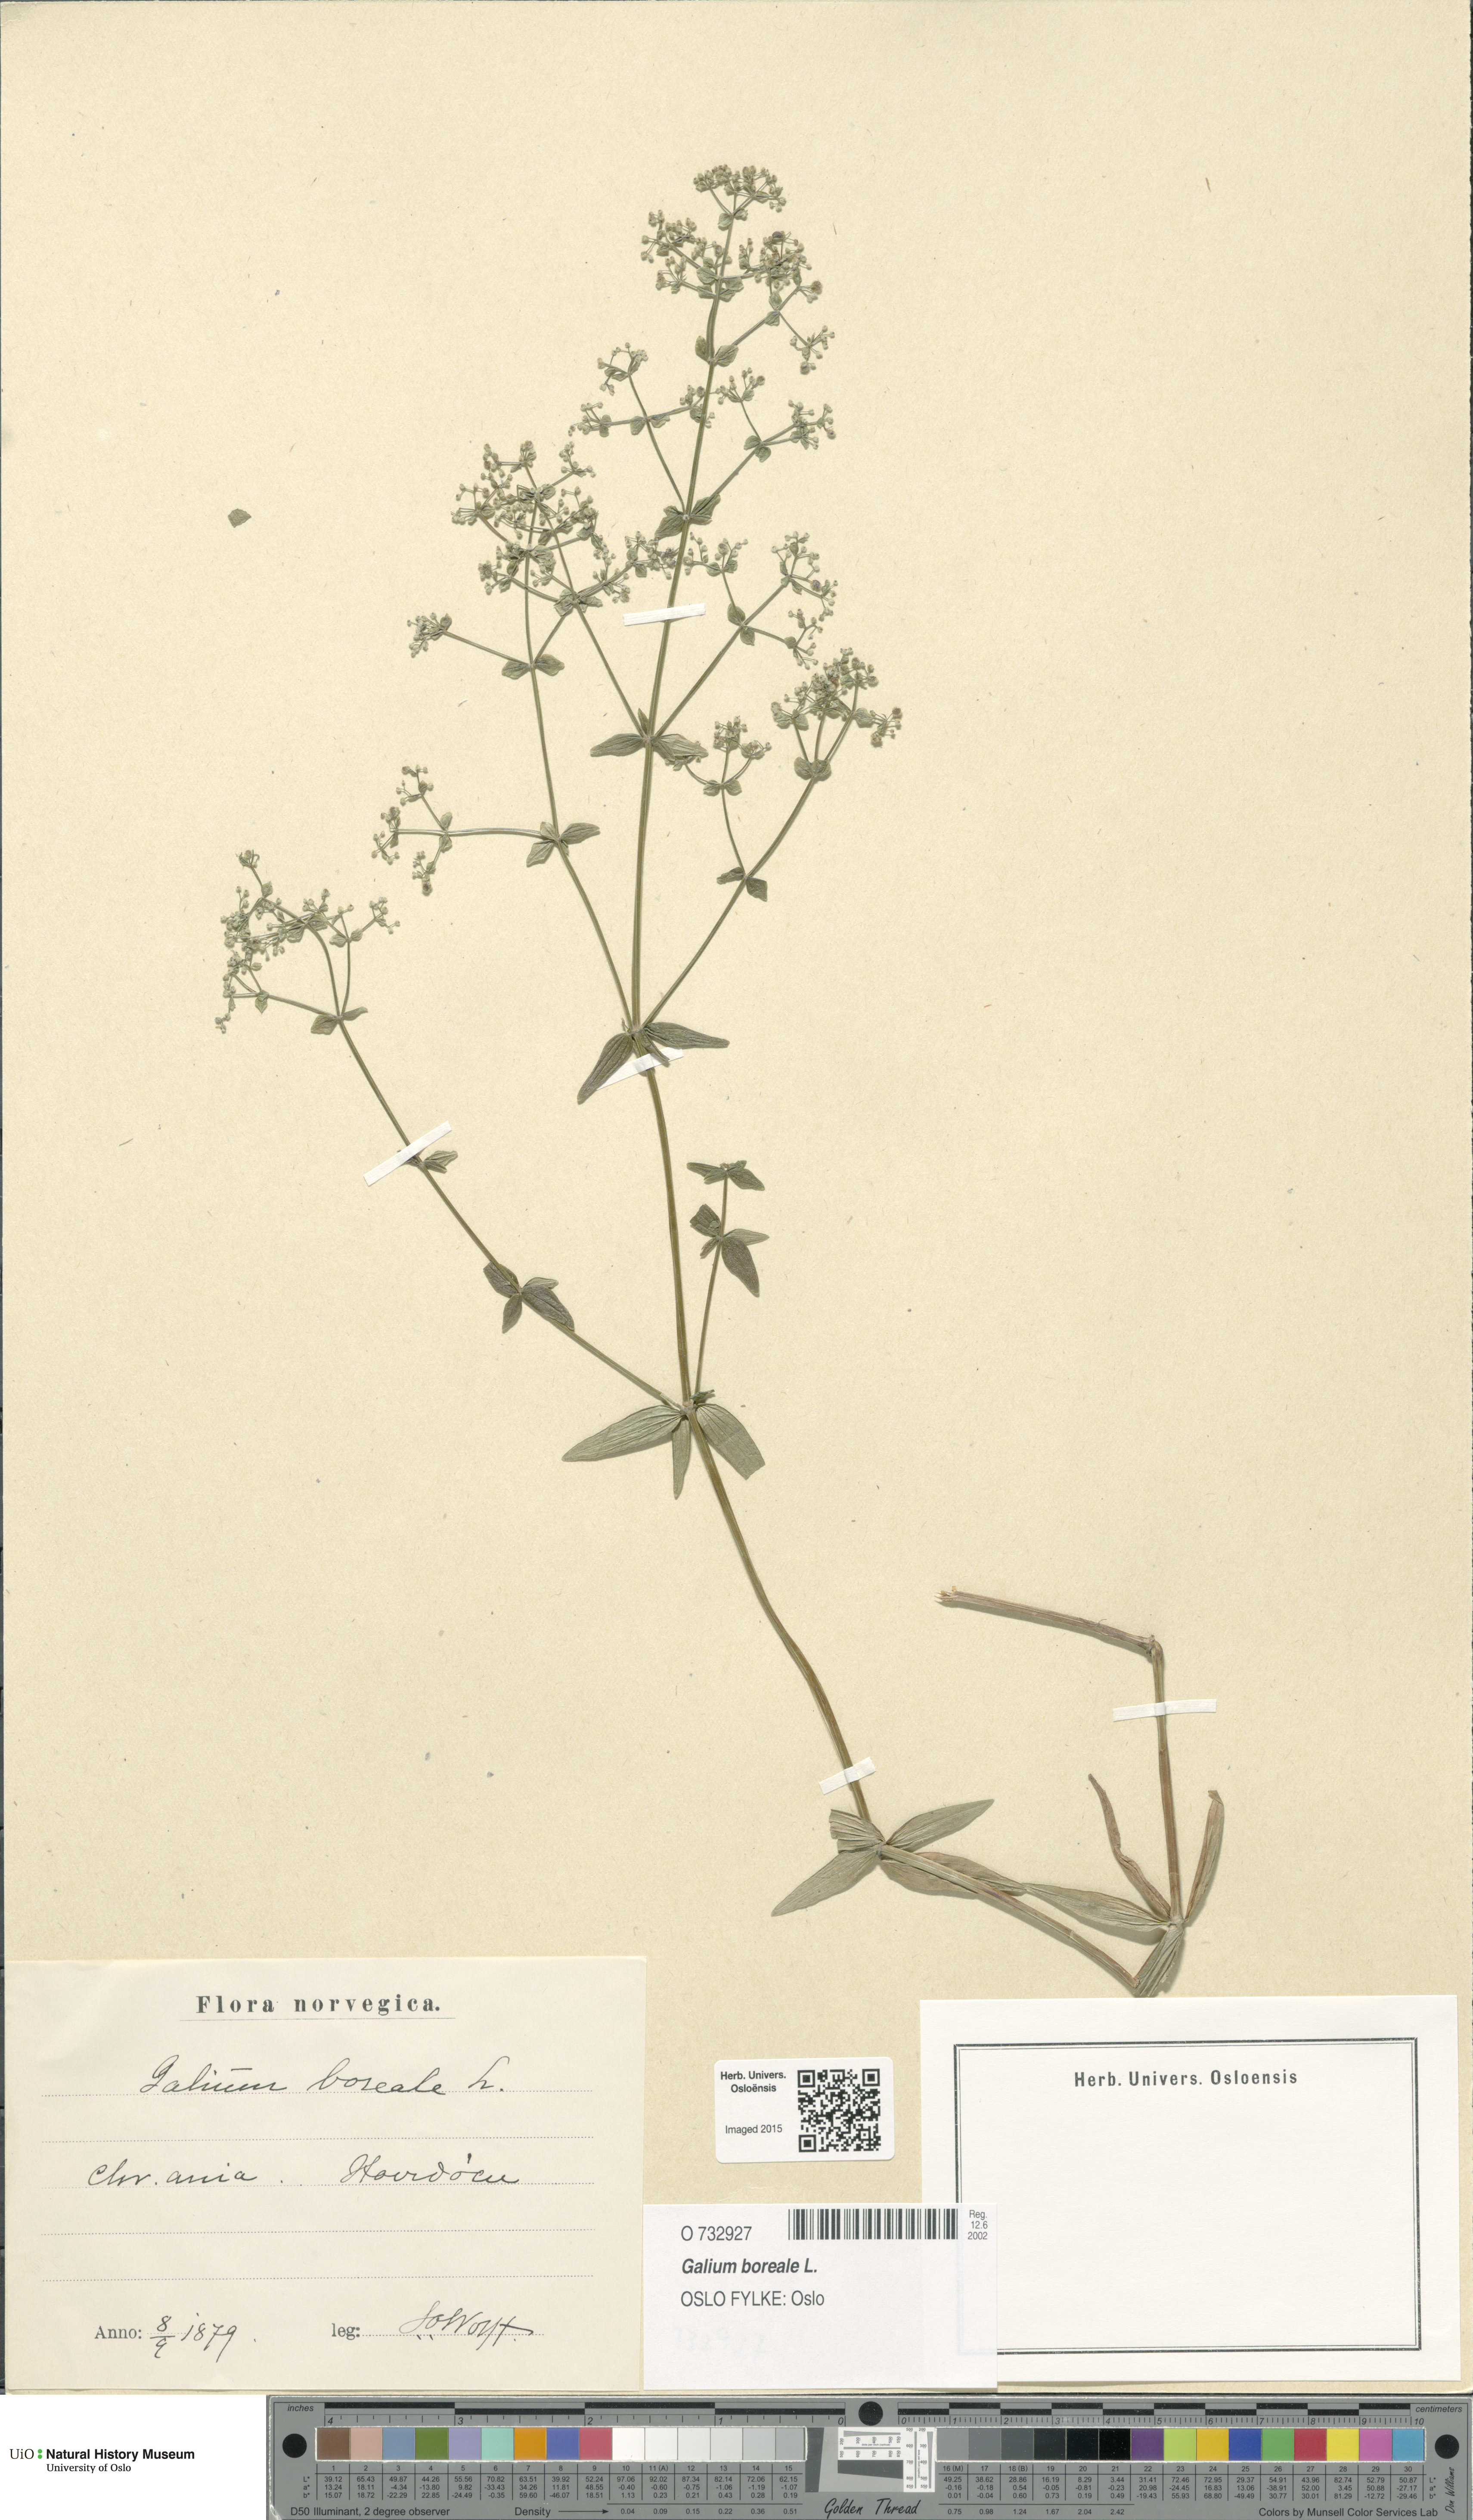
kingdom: Plantae
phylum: Tracheophyta
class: Magnoliopsida
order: Gentianales
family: Rubiaceae
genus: Galium
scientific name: Galium boreale
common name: Northern bedstraw
